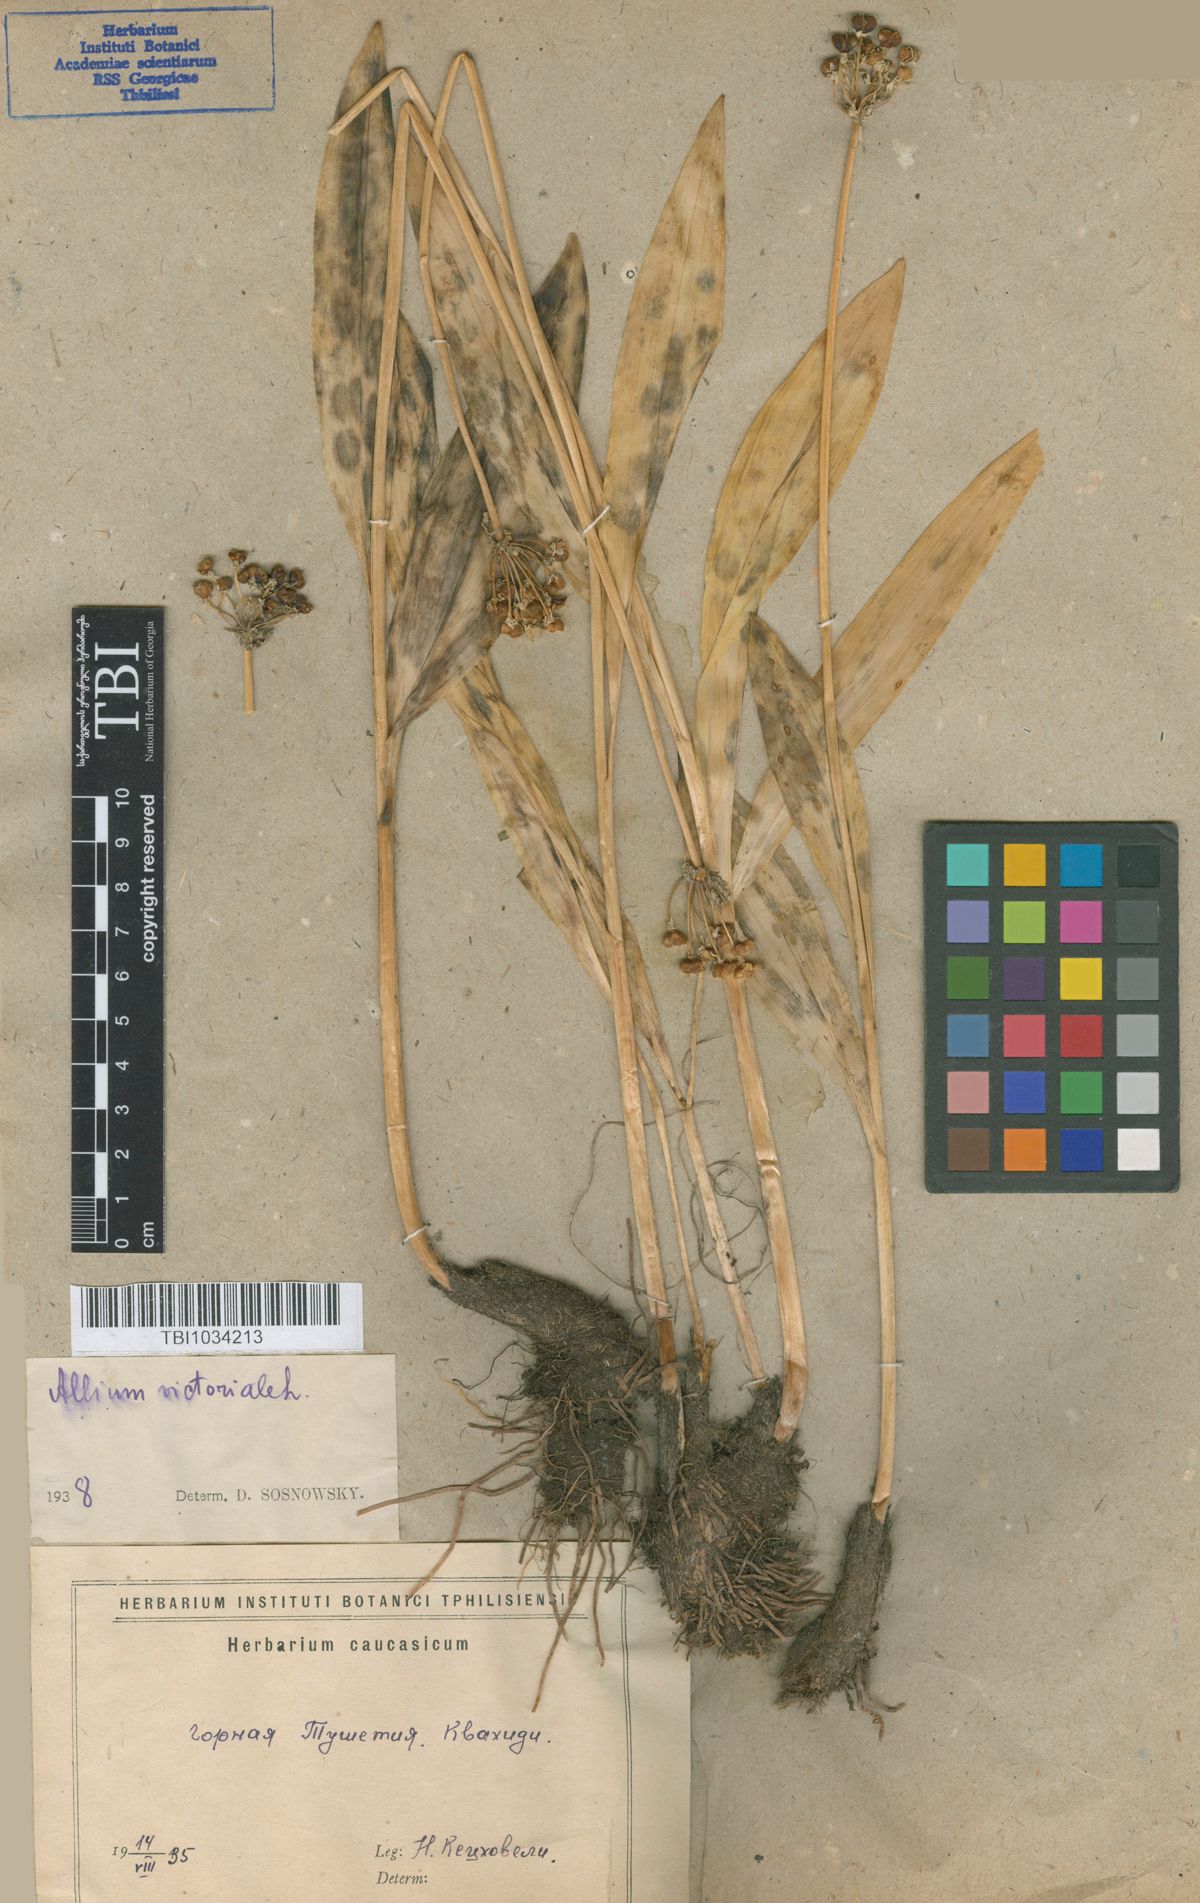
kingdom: Plantae
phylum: Tracheophyta
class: Liliopsida
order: Asparagales
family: Amaryllidaceae
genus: Allium
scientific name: Allium victorialis
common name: Alpine leek
